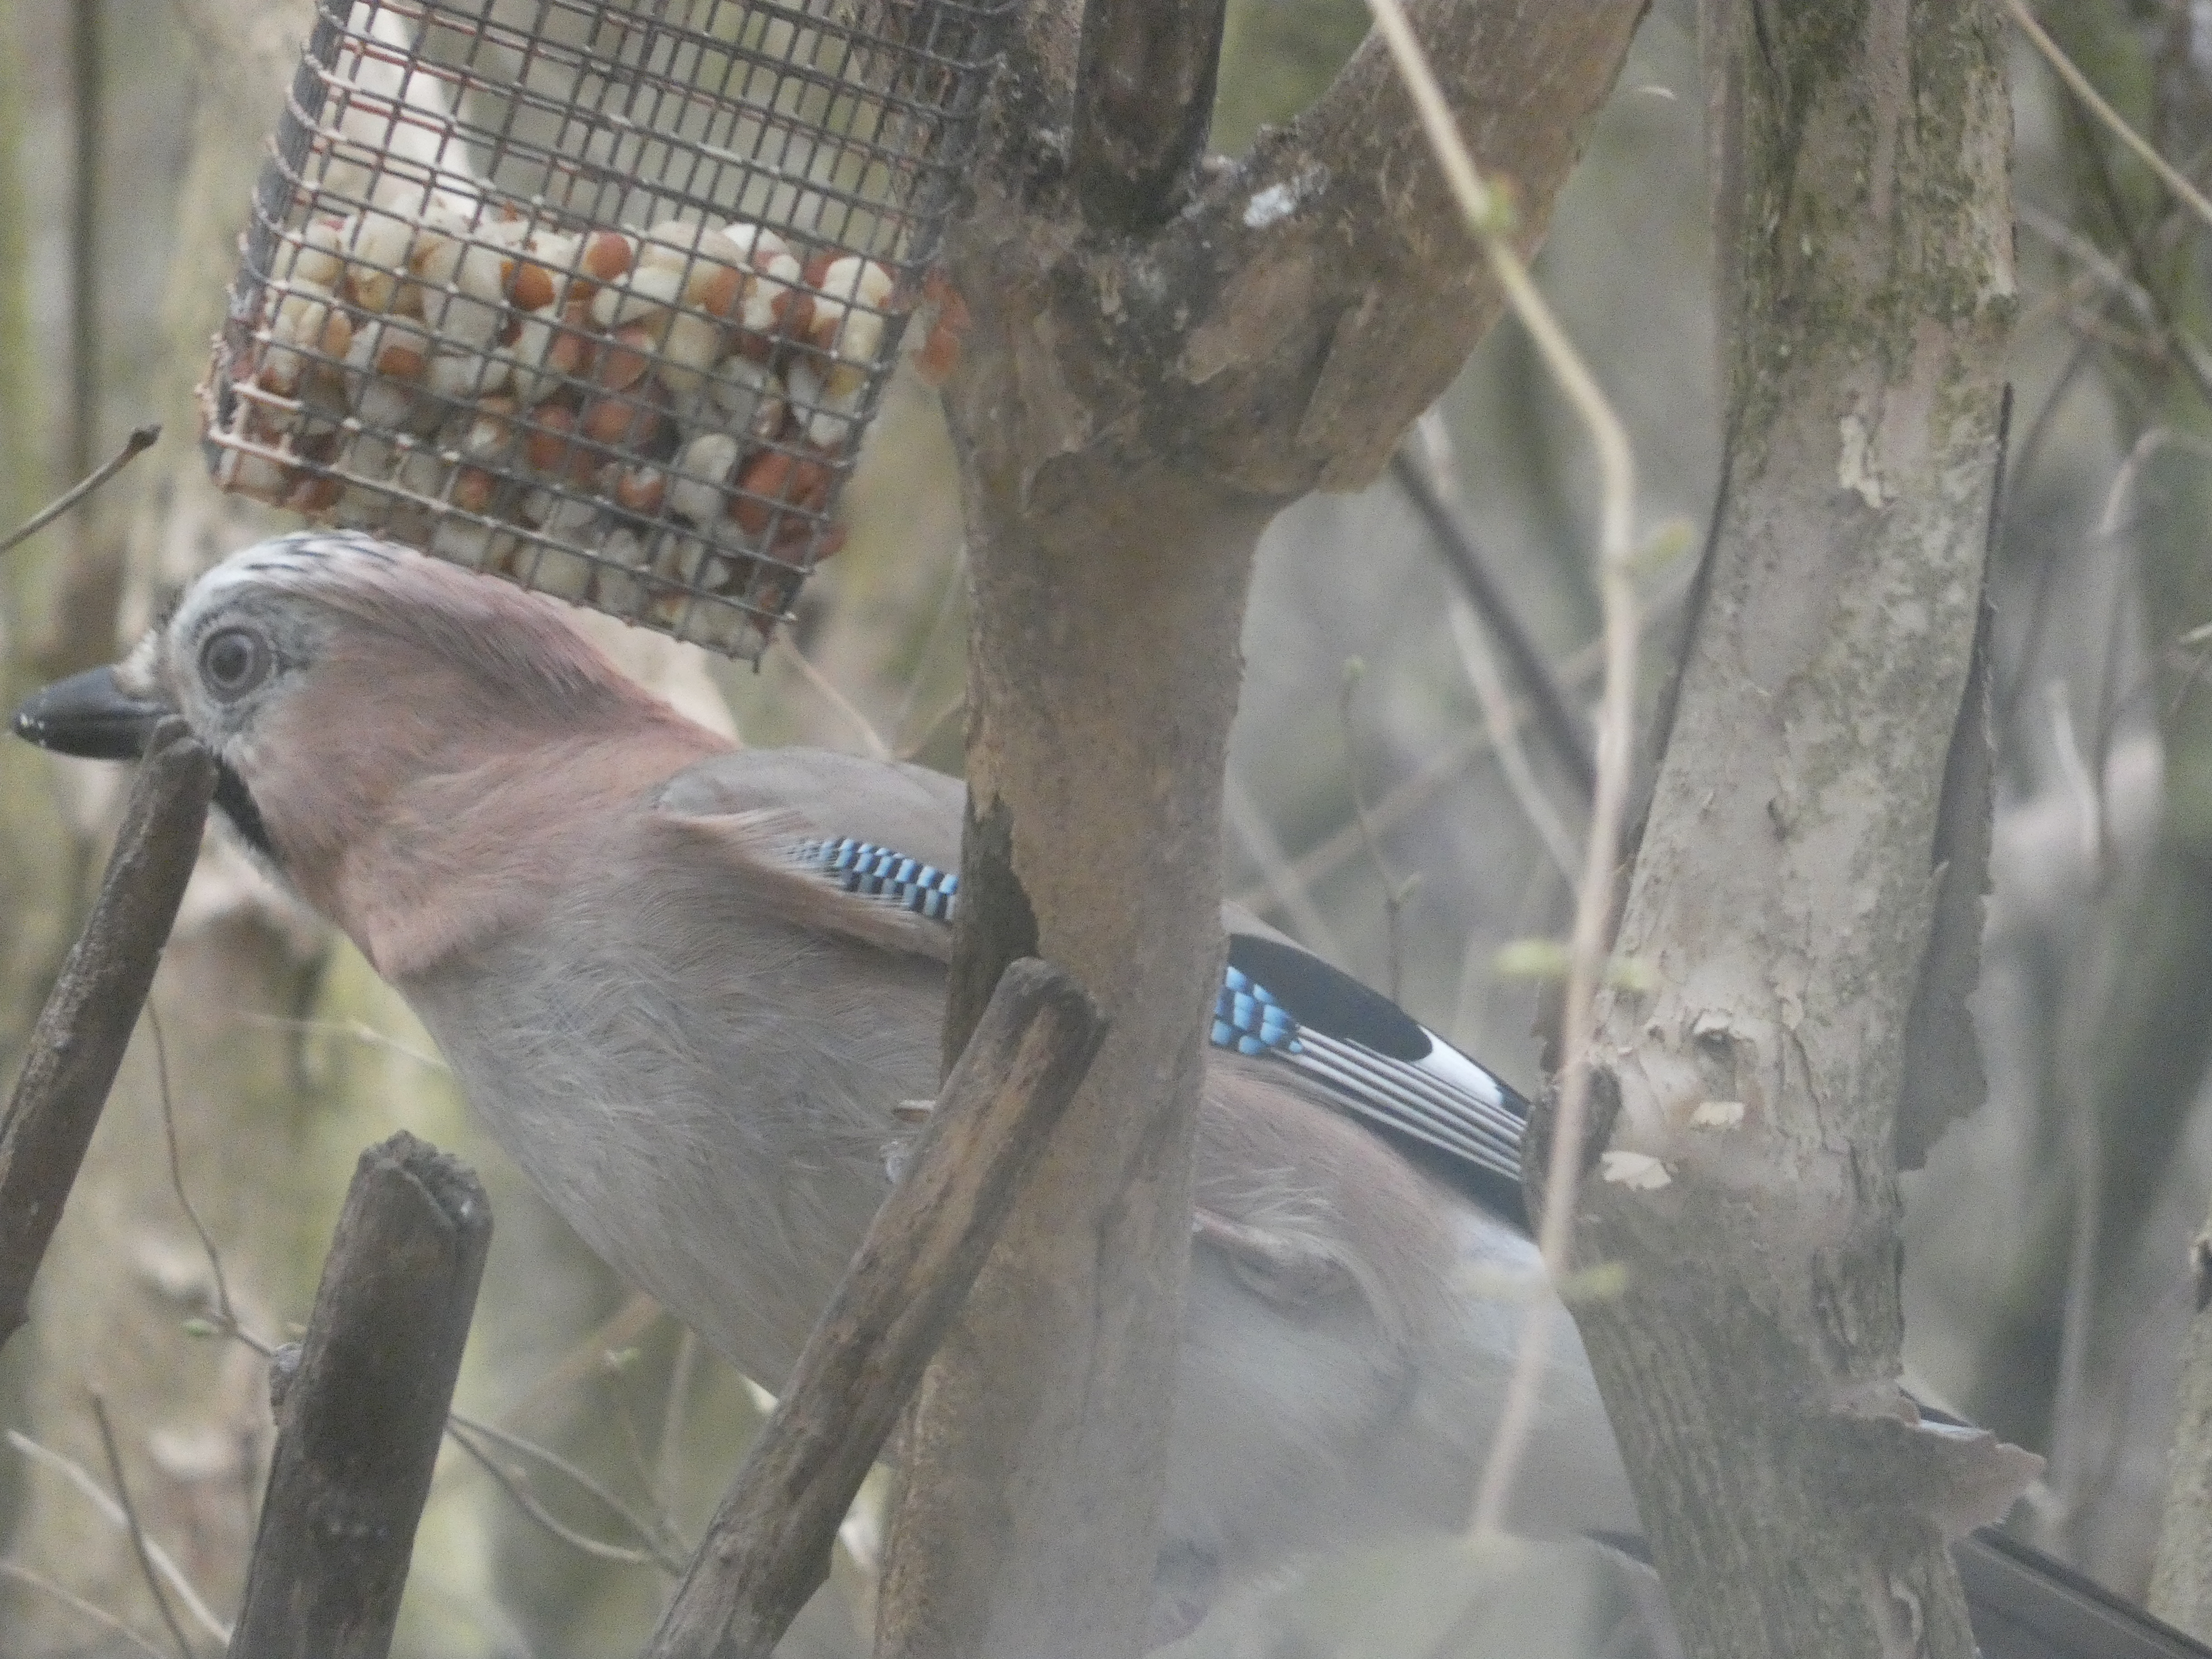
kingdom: Animalia
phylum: Chordata
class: Aves
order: Passeriformes
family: Corvidae
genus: Garrulus
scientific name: Garrulus glandarius
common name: Skovskade
